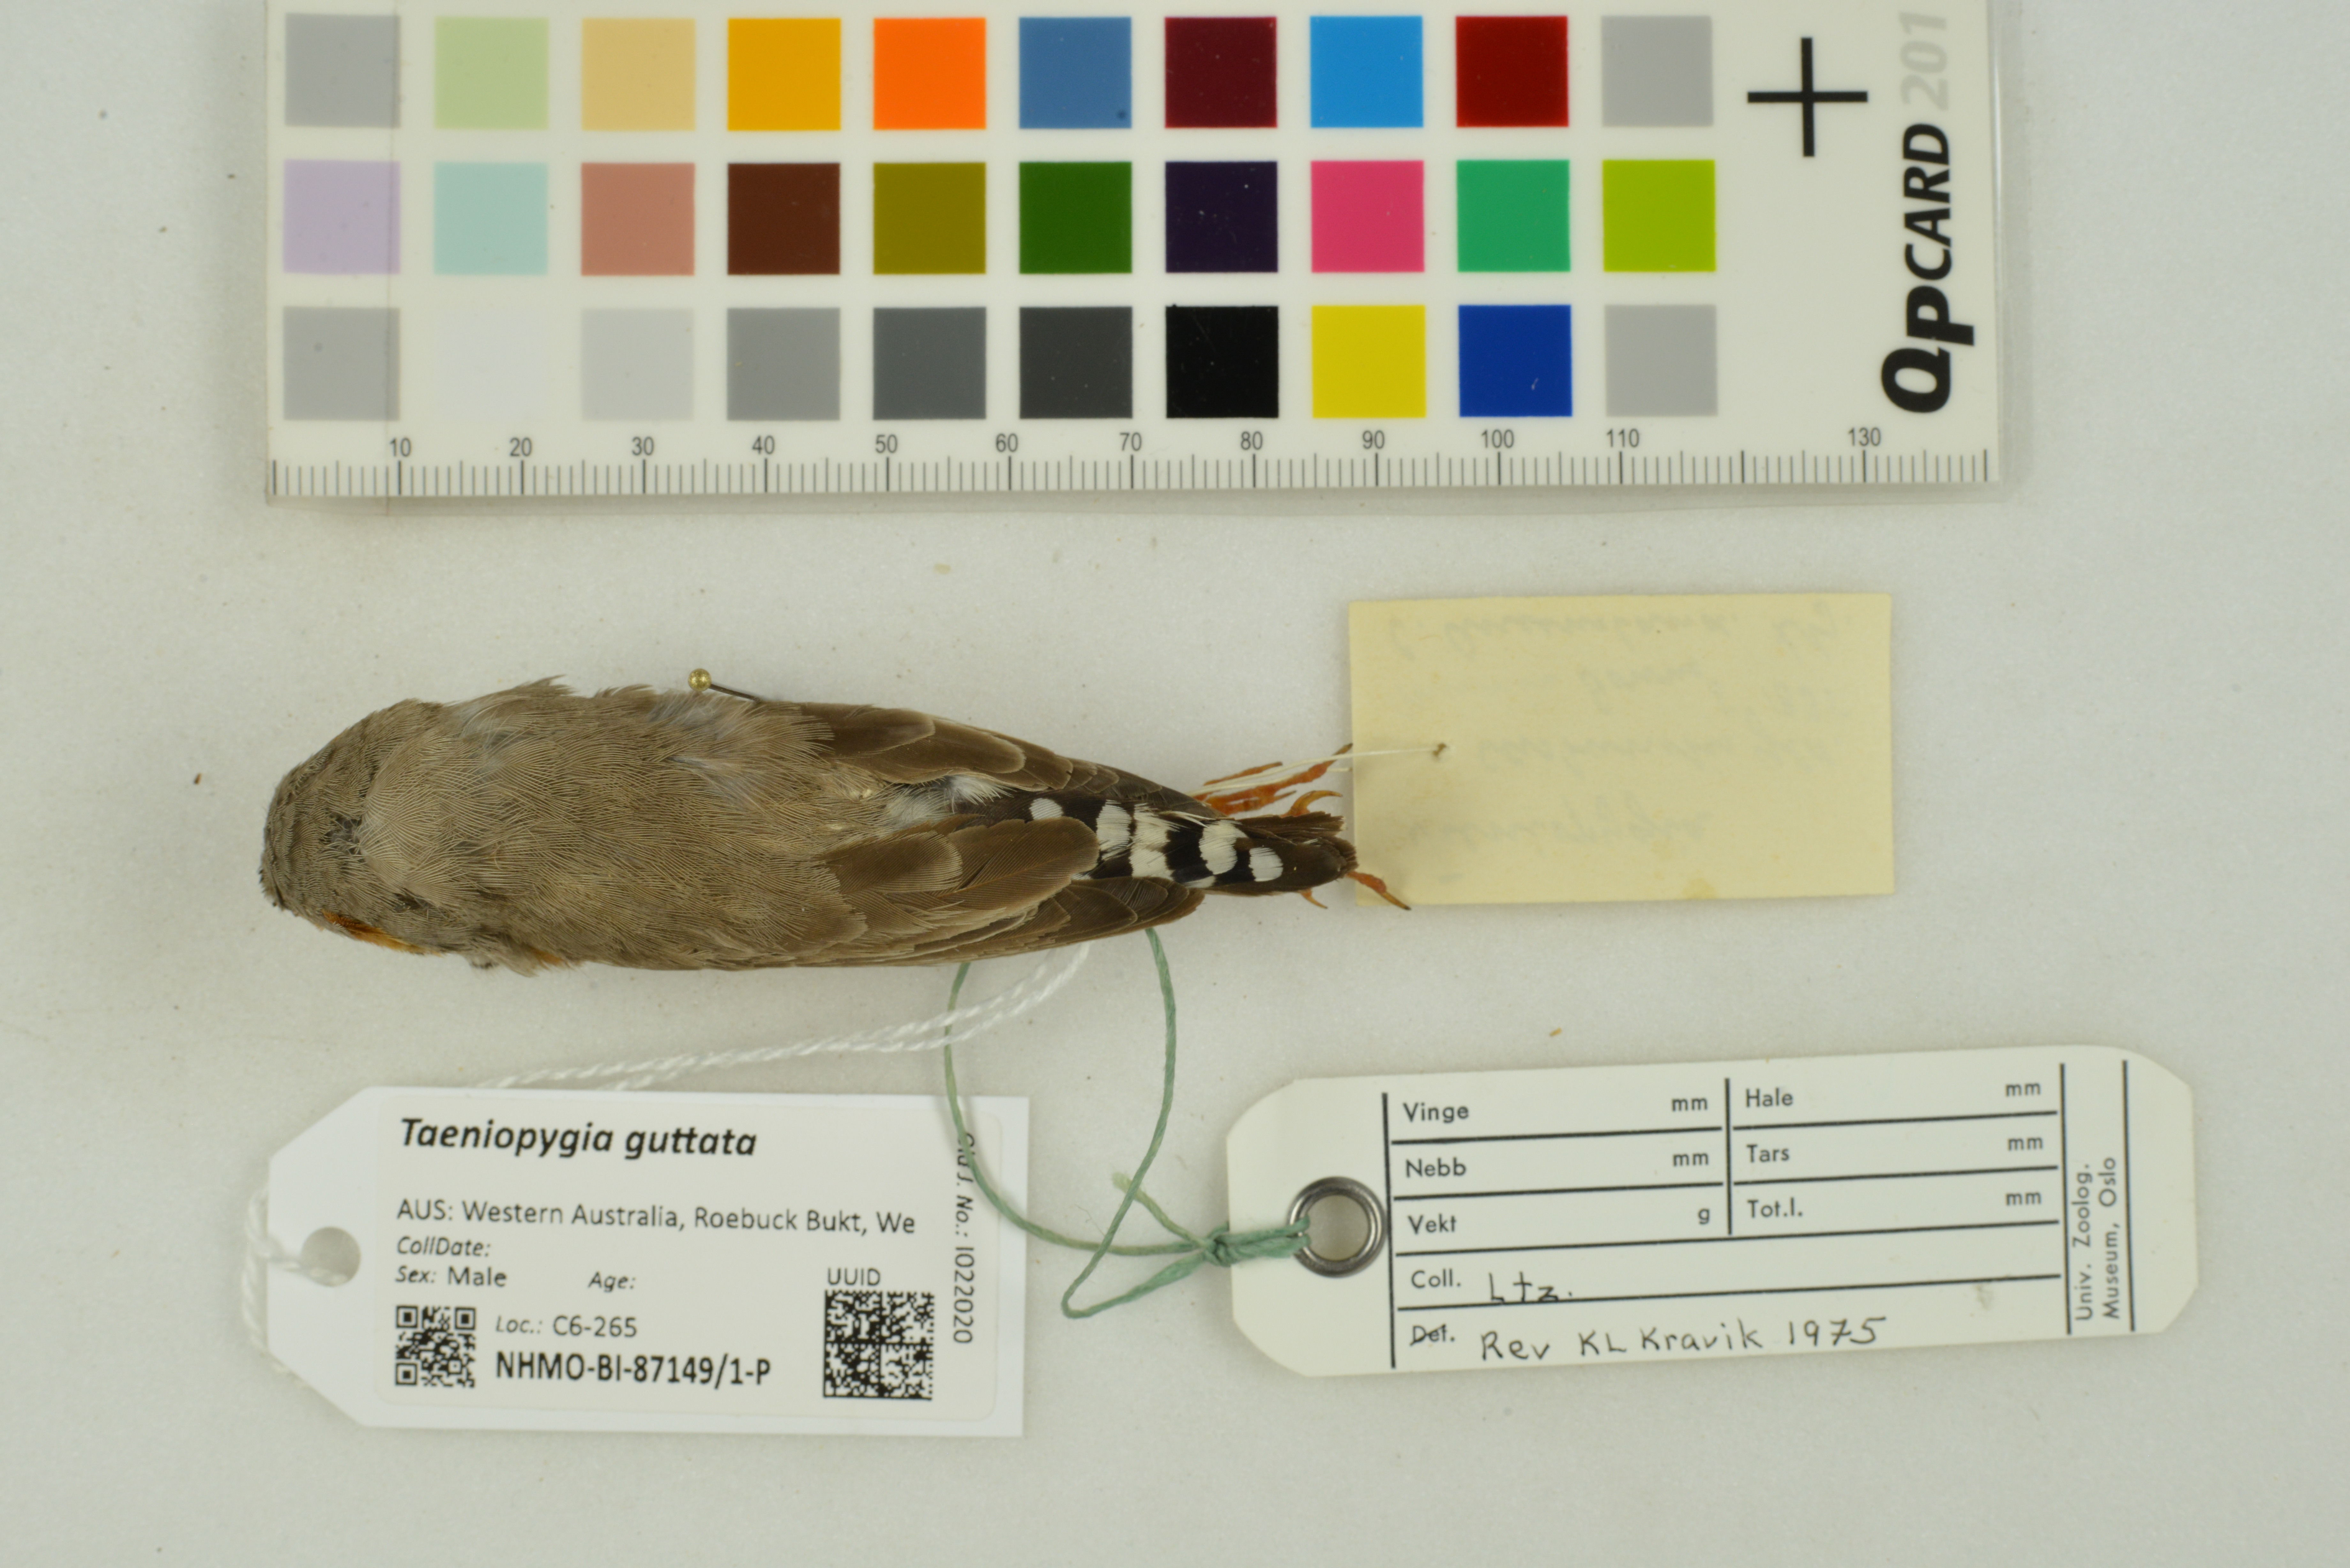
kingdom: Animalia
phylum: Chordata
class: Aves
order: Passeriformes
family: Estrildidae
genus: Taeniopygia
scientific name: Taeniopygia guttata
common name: Zebra finch
